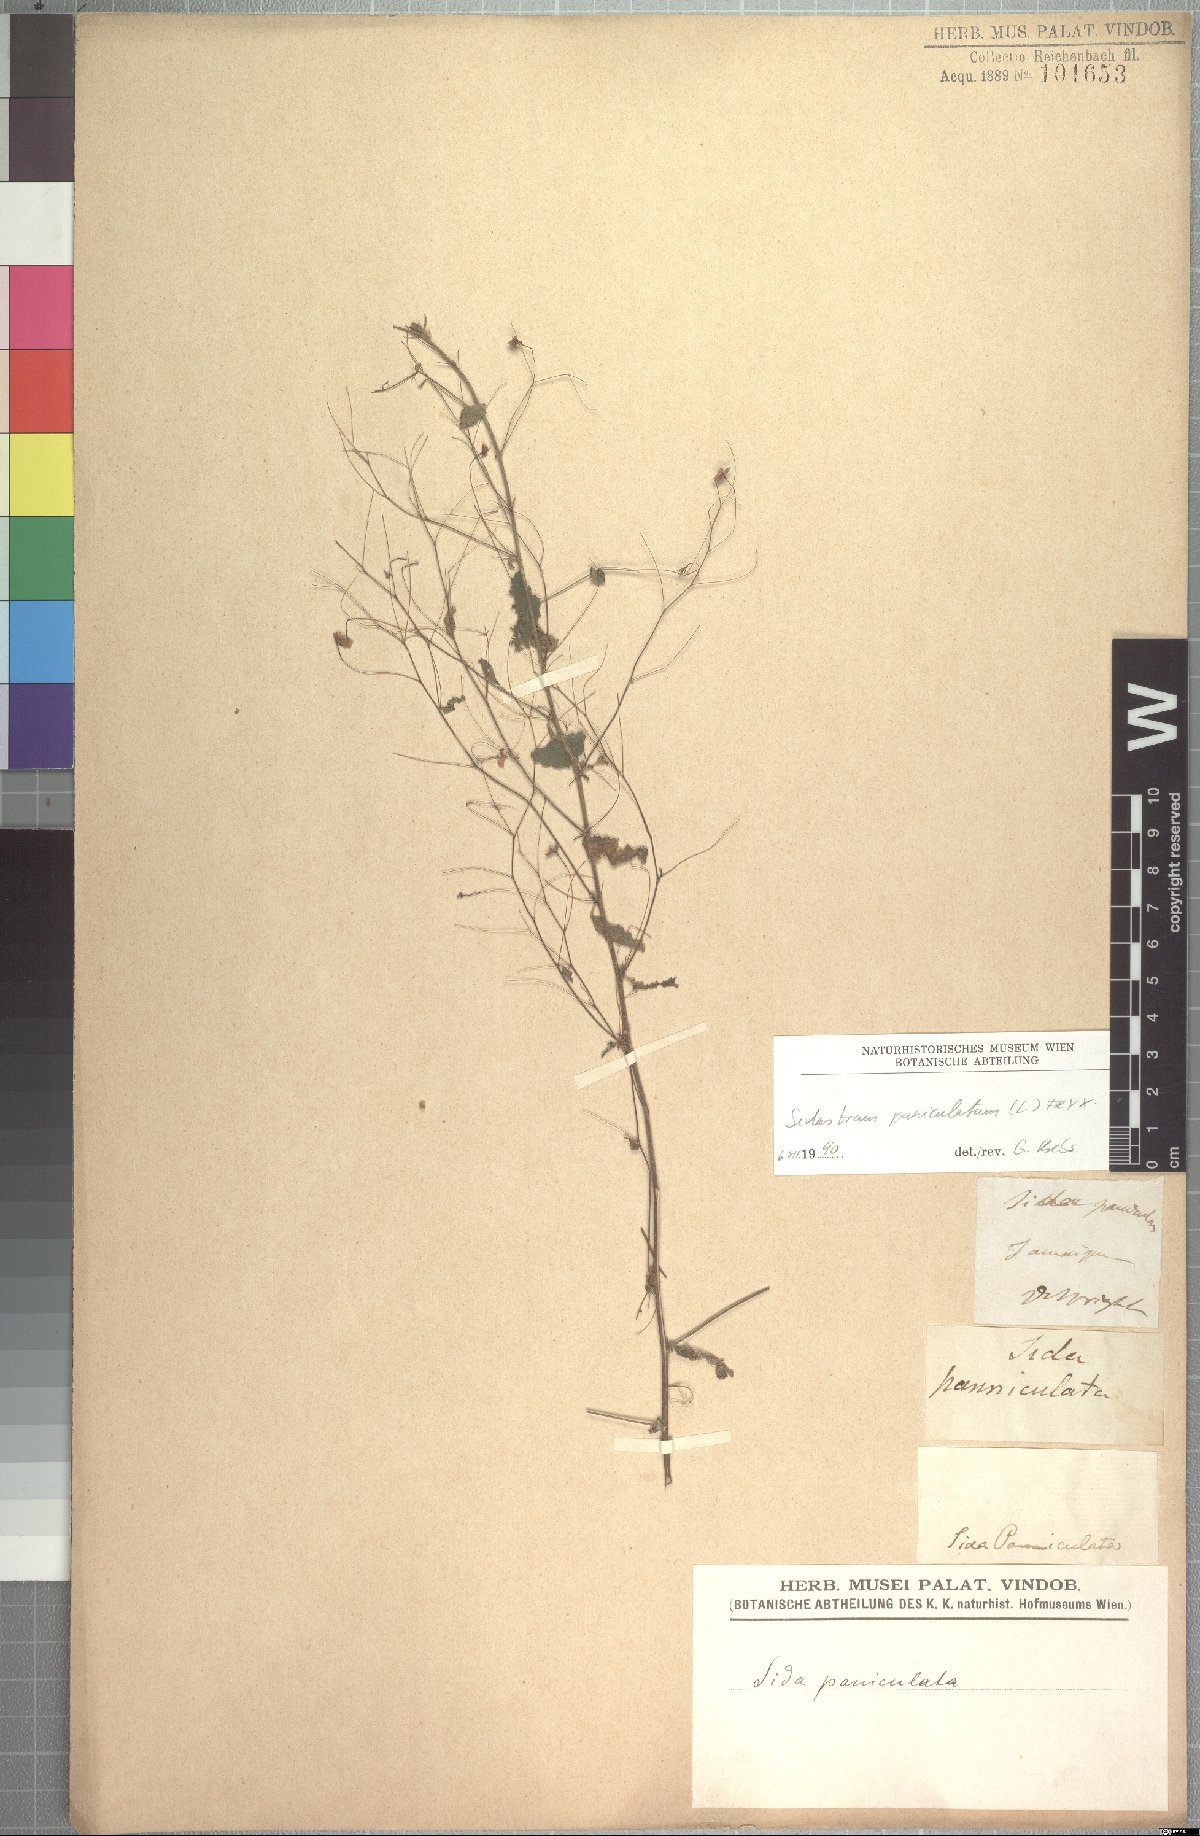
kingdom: Plantae
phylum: Tracheophyta
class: Magnoliopsida
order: Malvales
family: Malvaceae
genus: Sidastrum
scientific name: Sidastrum paniculatum
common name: Panicled sandmallow
